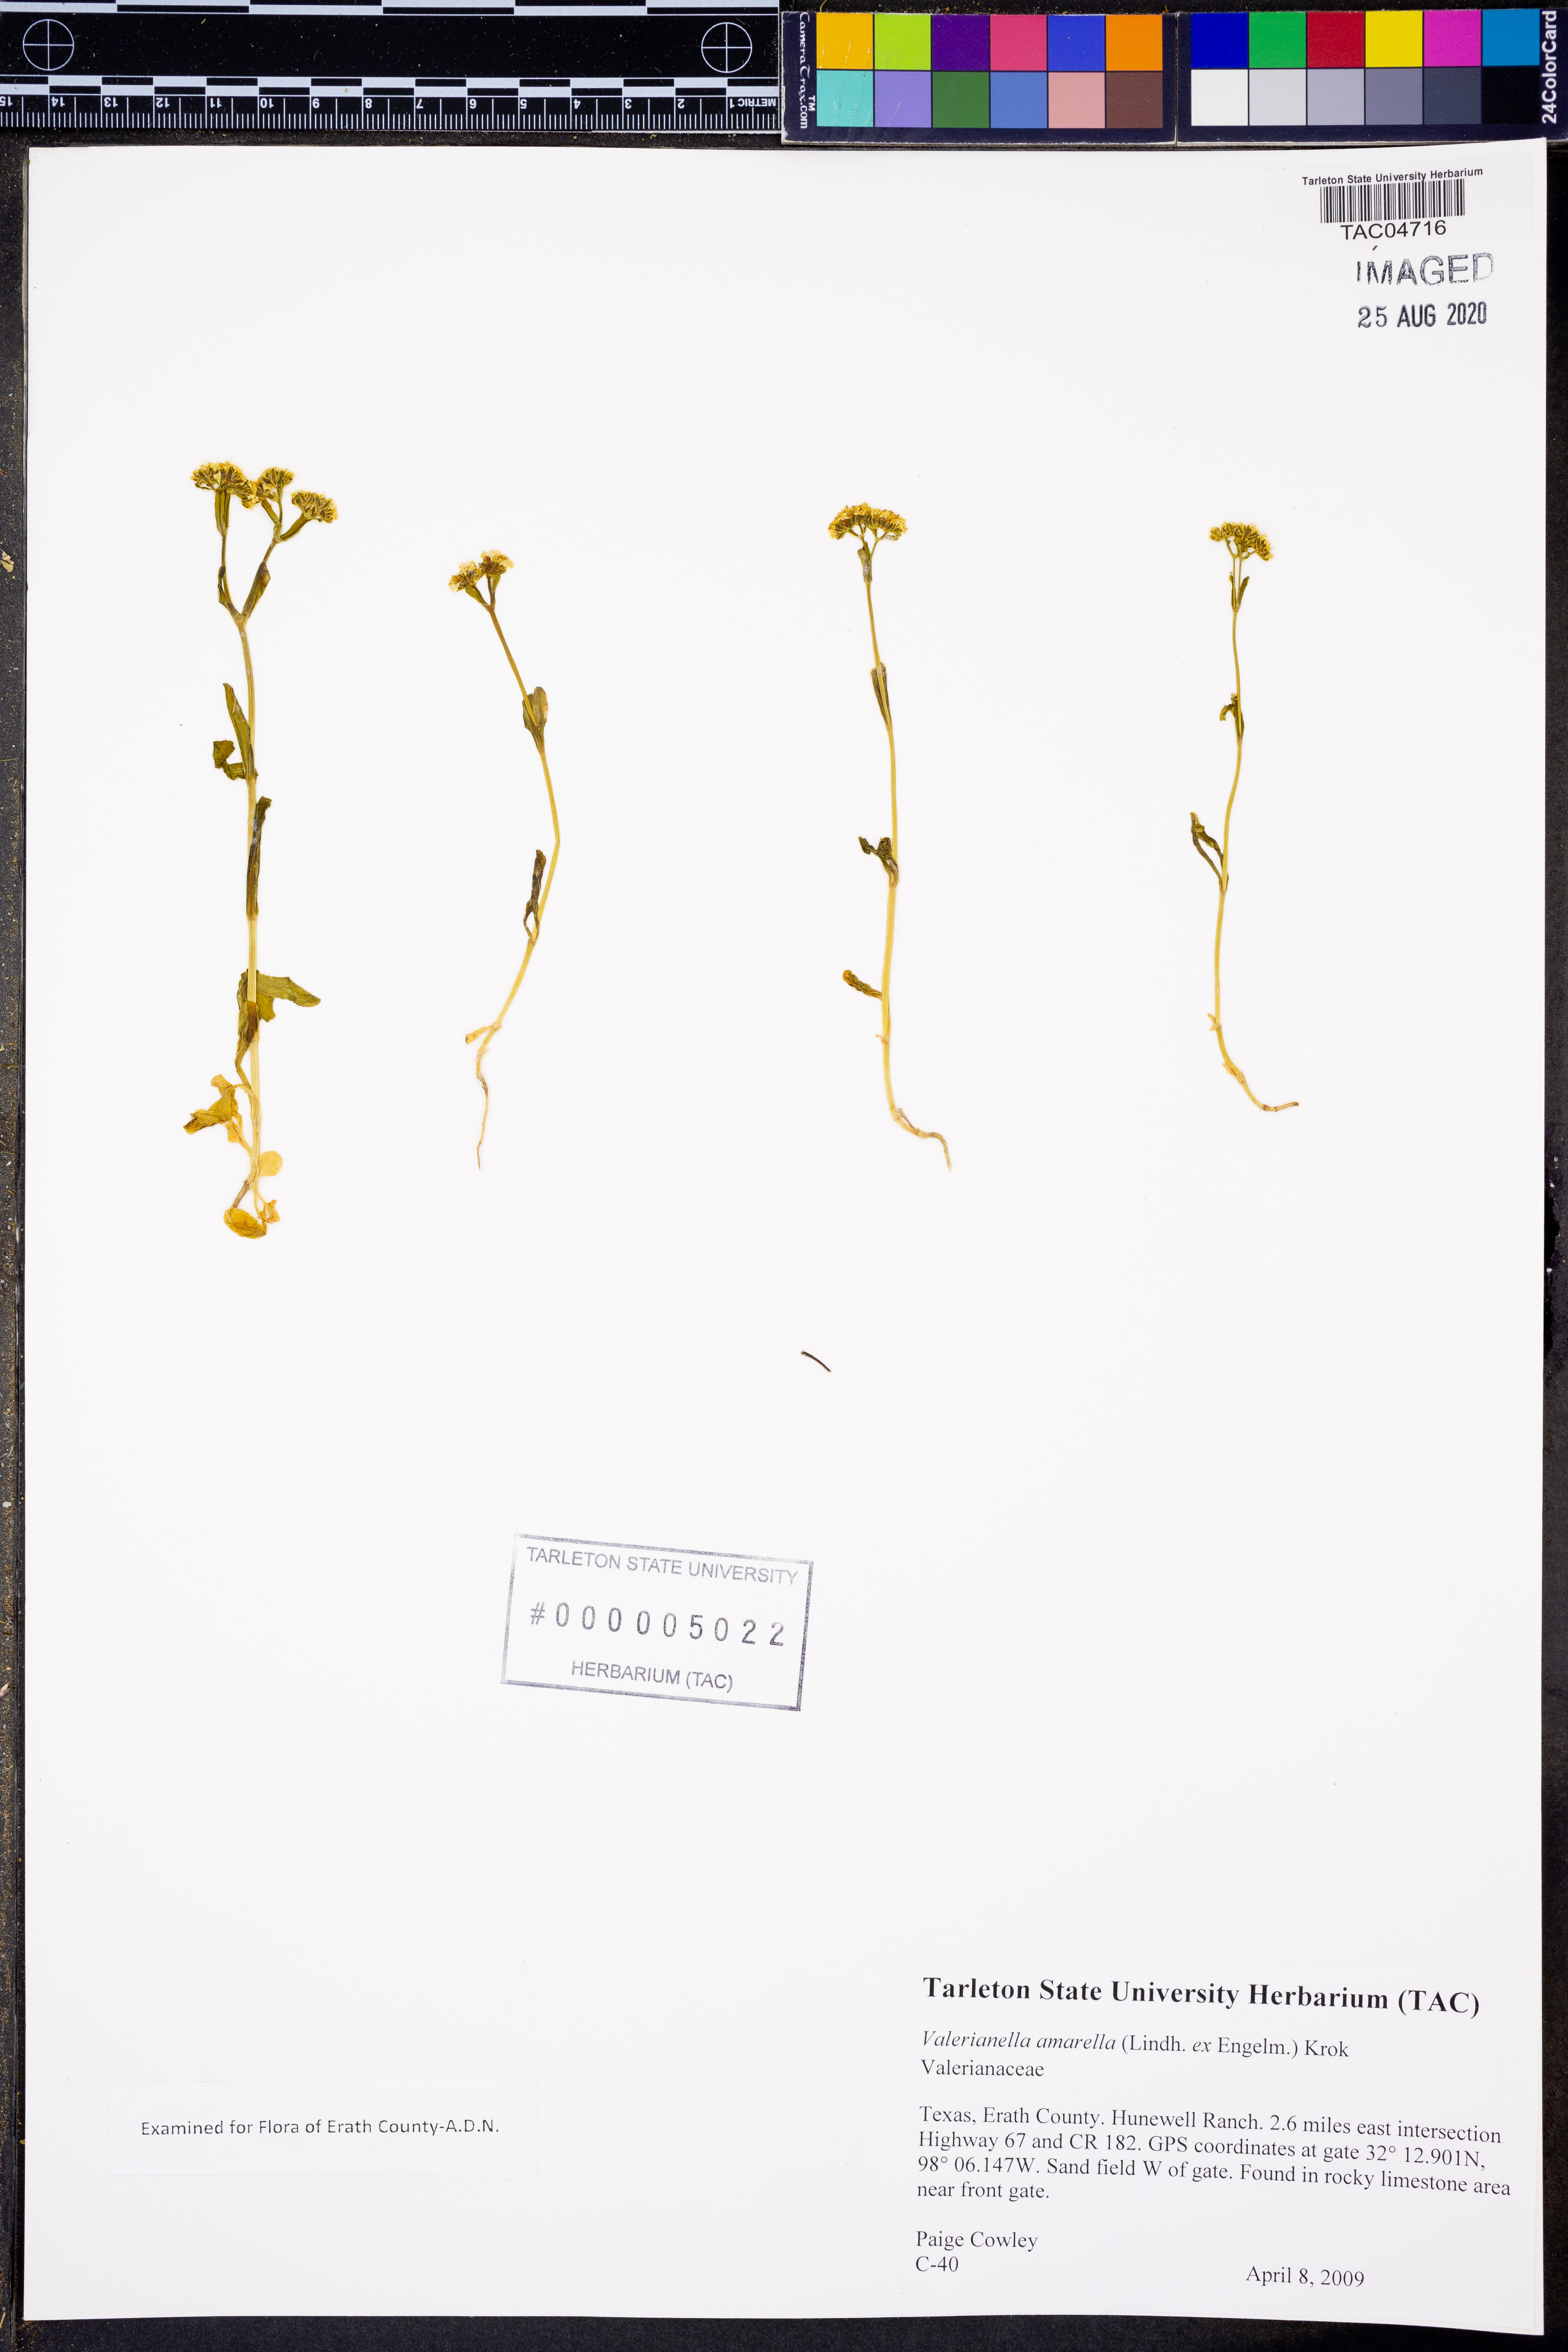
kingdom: Plantae
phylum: Tracheophyta
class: Magnoliopsida
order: Dipsacales
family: Caprifoliaceae
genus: Valerianella
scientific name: Valerianella amarella
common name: Hariy cornsalad
